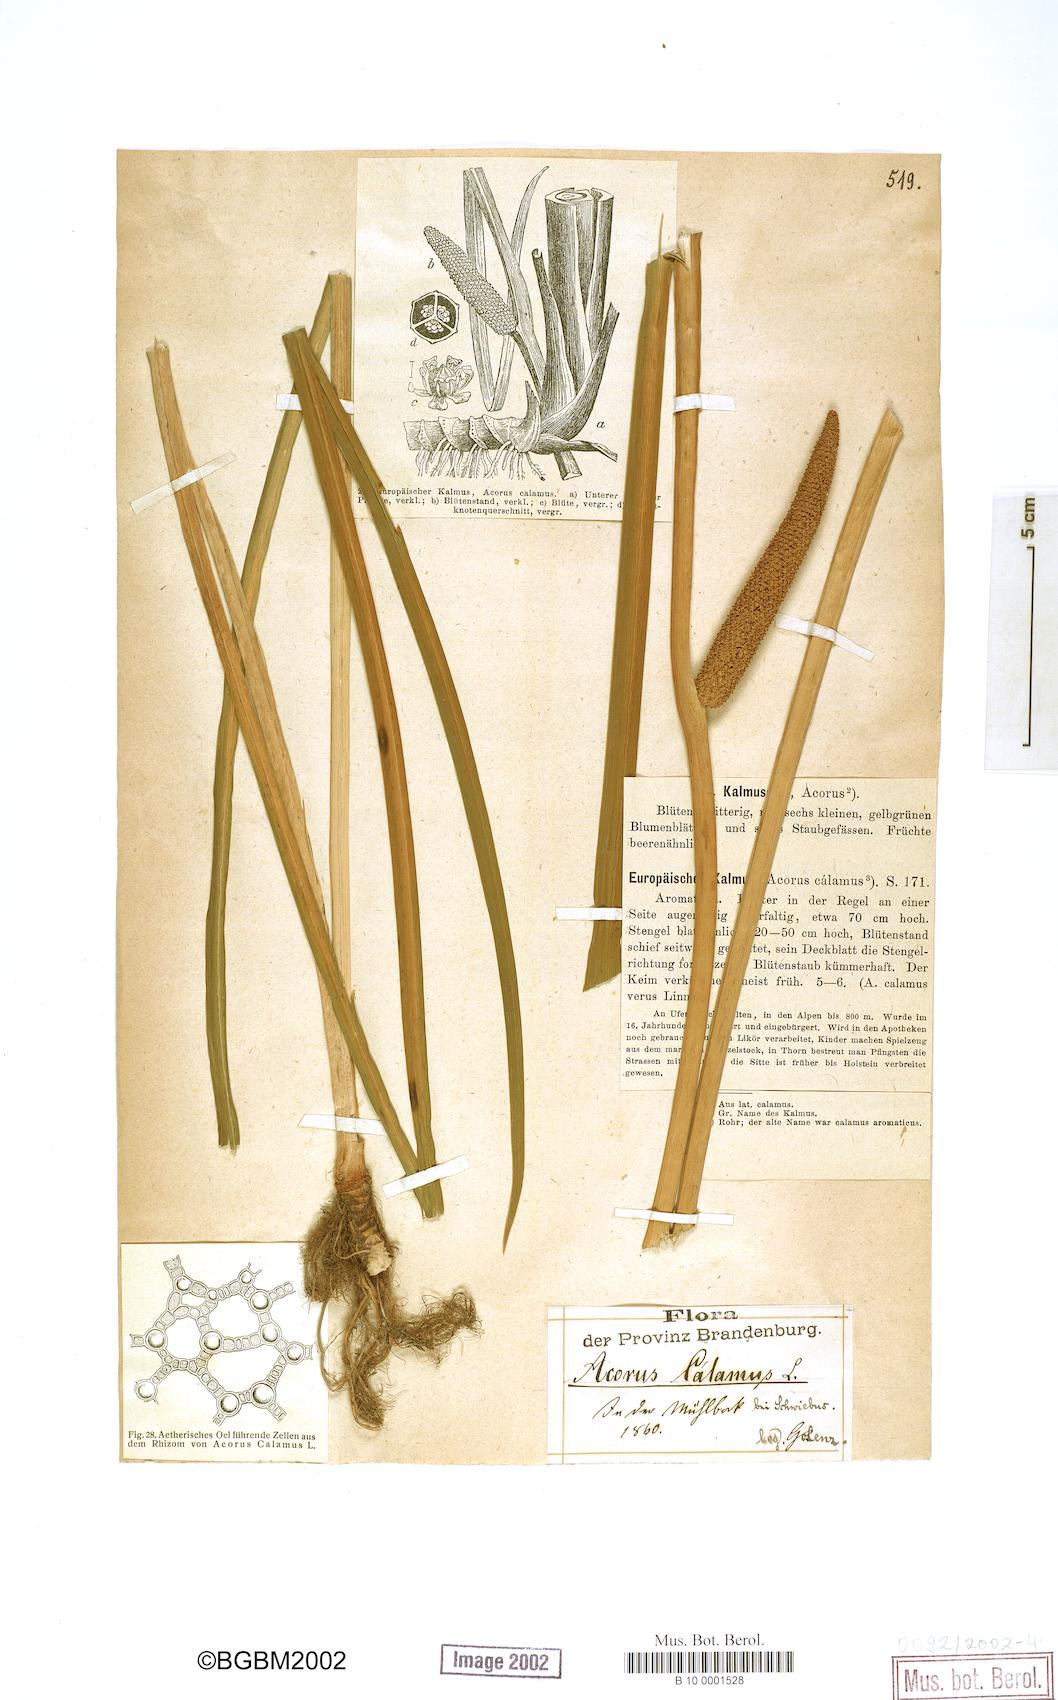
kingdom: Plantae
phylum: Tracheophyta
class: Liliopsida
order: Acorales
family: Acoraceae
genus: Acorus
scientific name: Acorus calamus
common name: Sweet-flag
